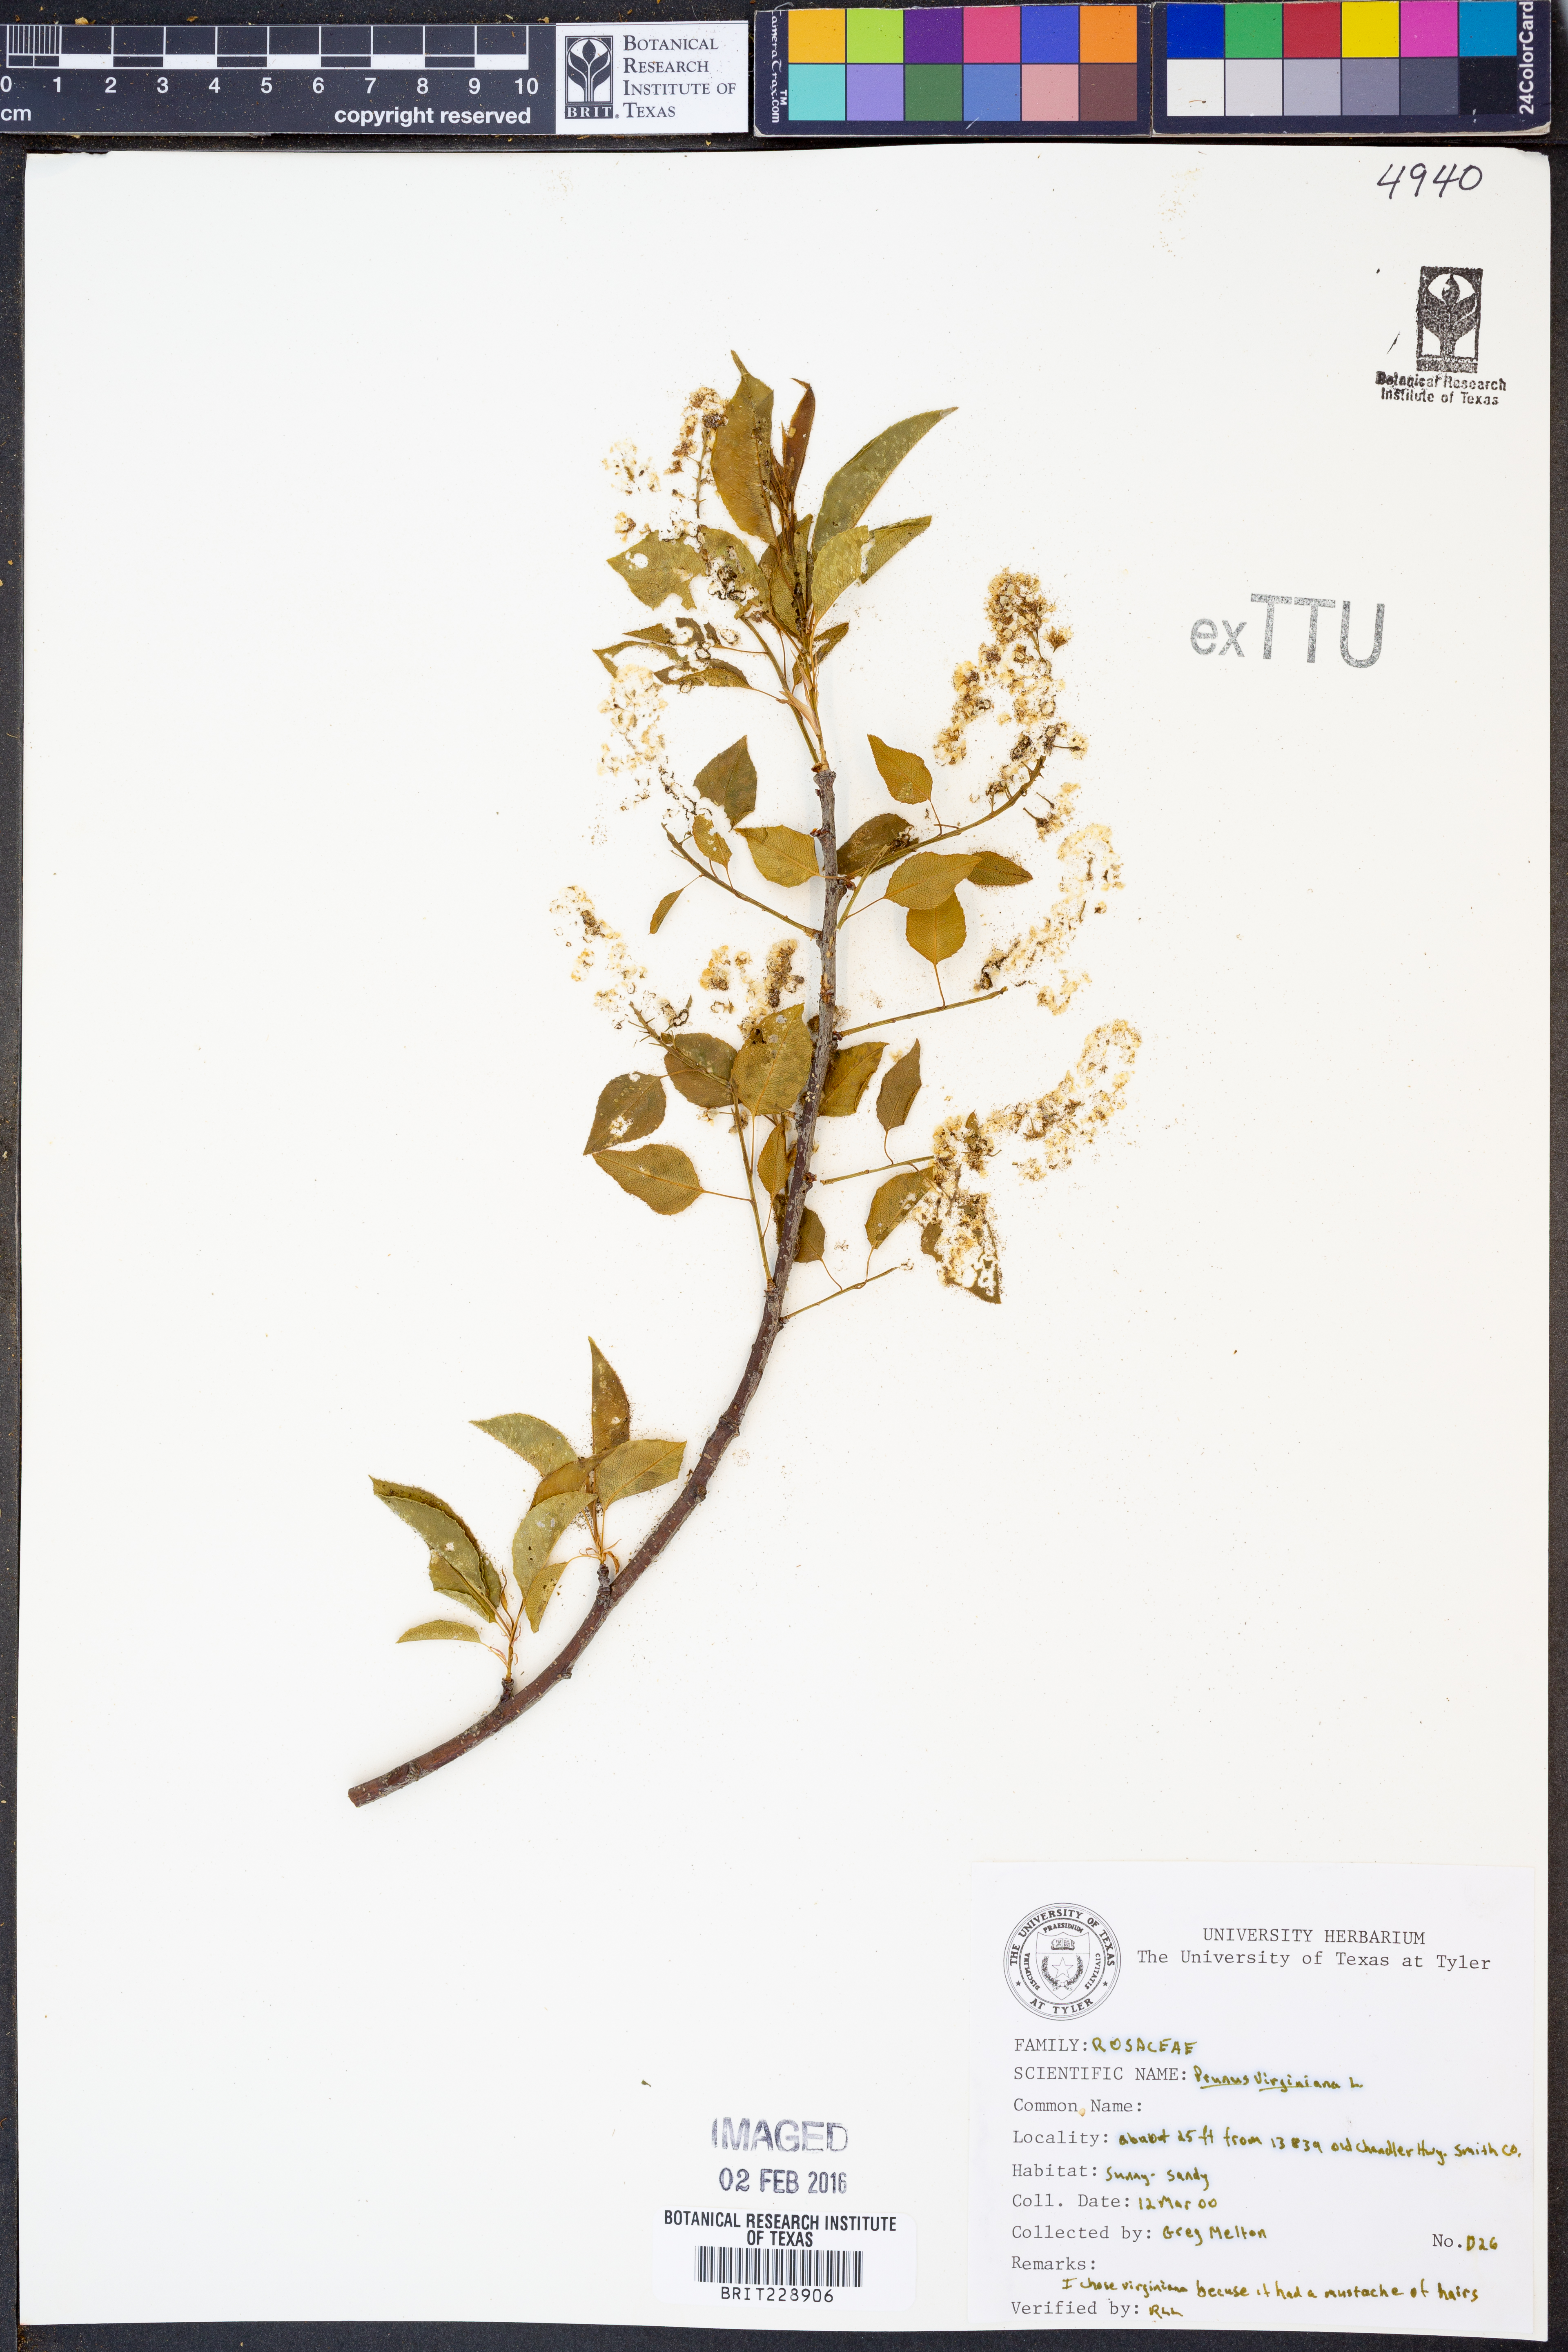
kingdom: Plantae
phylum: Tracheophyta
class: Magnoliopsida
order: Rosales
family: Rosaceae
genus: Prunus
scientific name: Prunus virginiana
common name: Chokecherry
